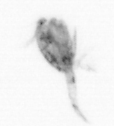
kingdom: Animalia
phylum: Arthropoda
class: Copepoda
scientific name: Copepoda
